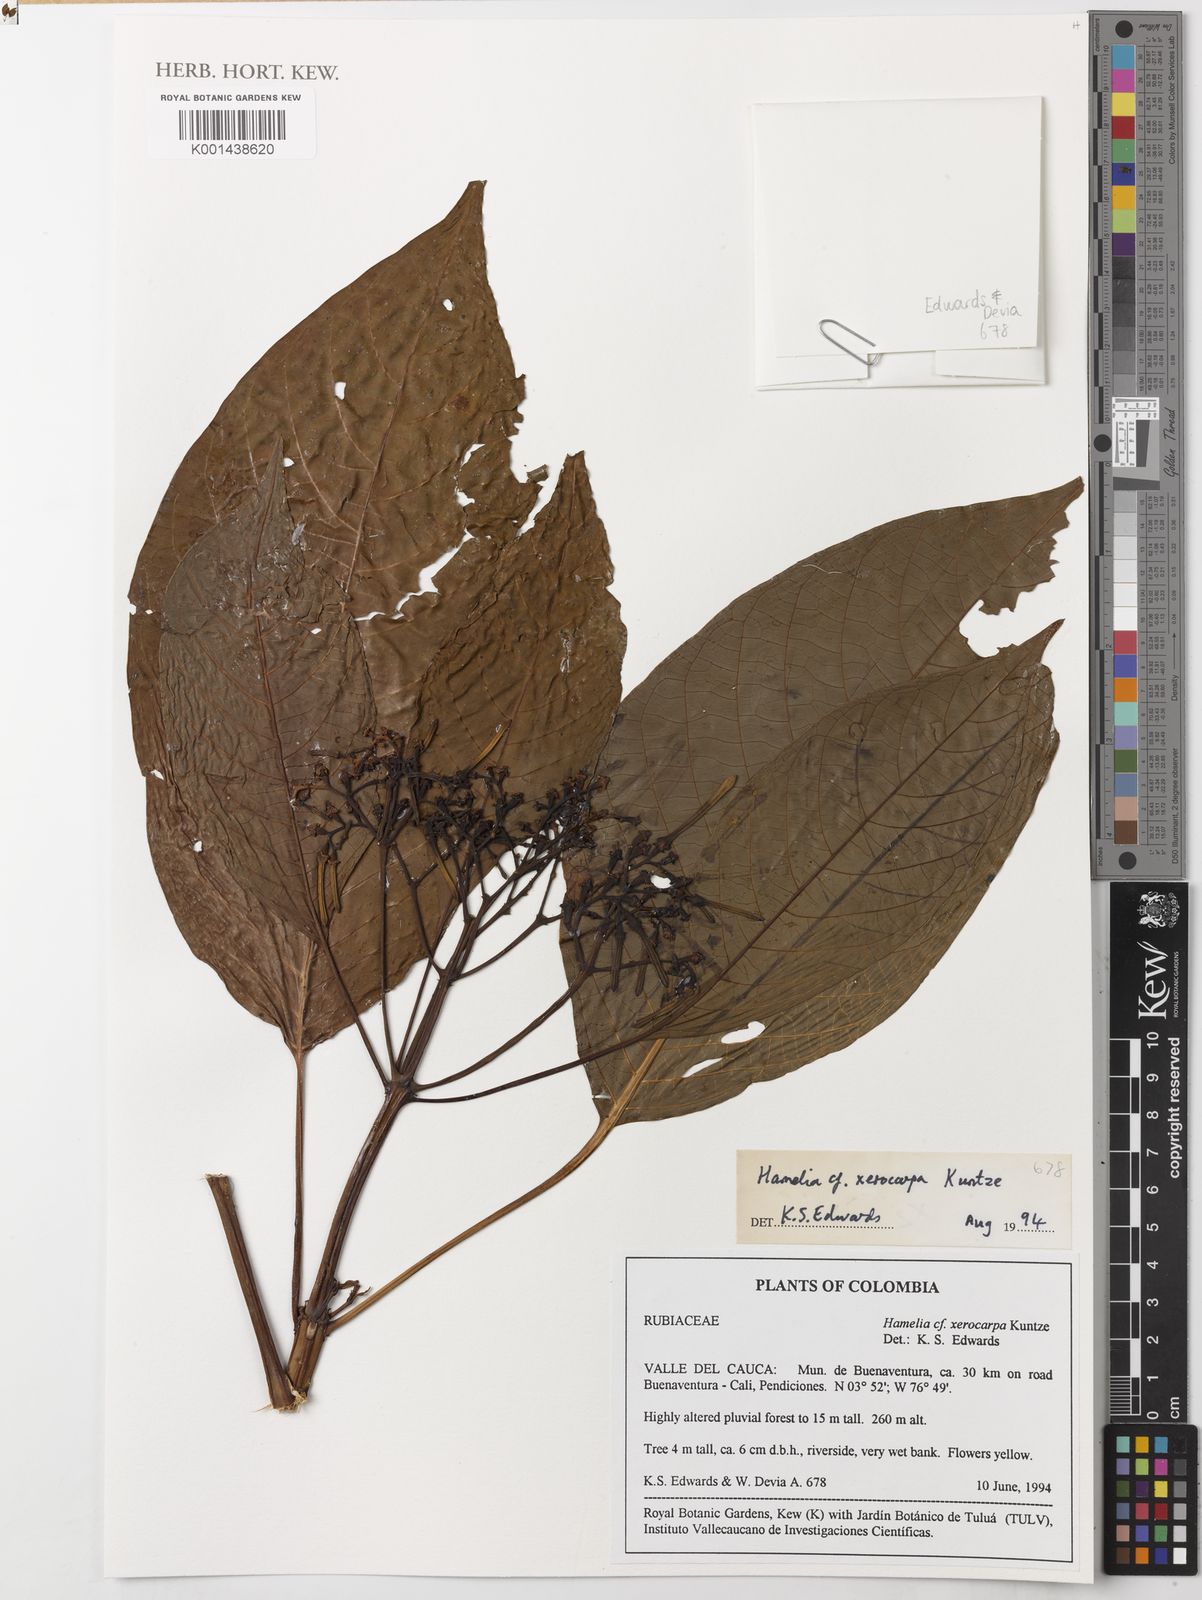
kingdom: Plantae
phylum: Tracheophyta
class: Magnoliopsida
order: Gentianales
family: Rubiaceae
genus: Hamelia
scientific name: Hamelia xerocarpa
